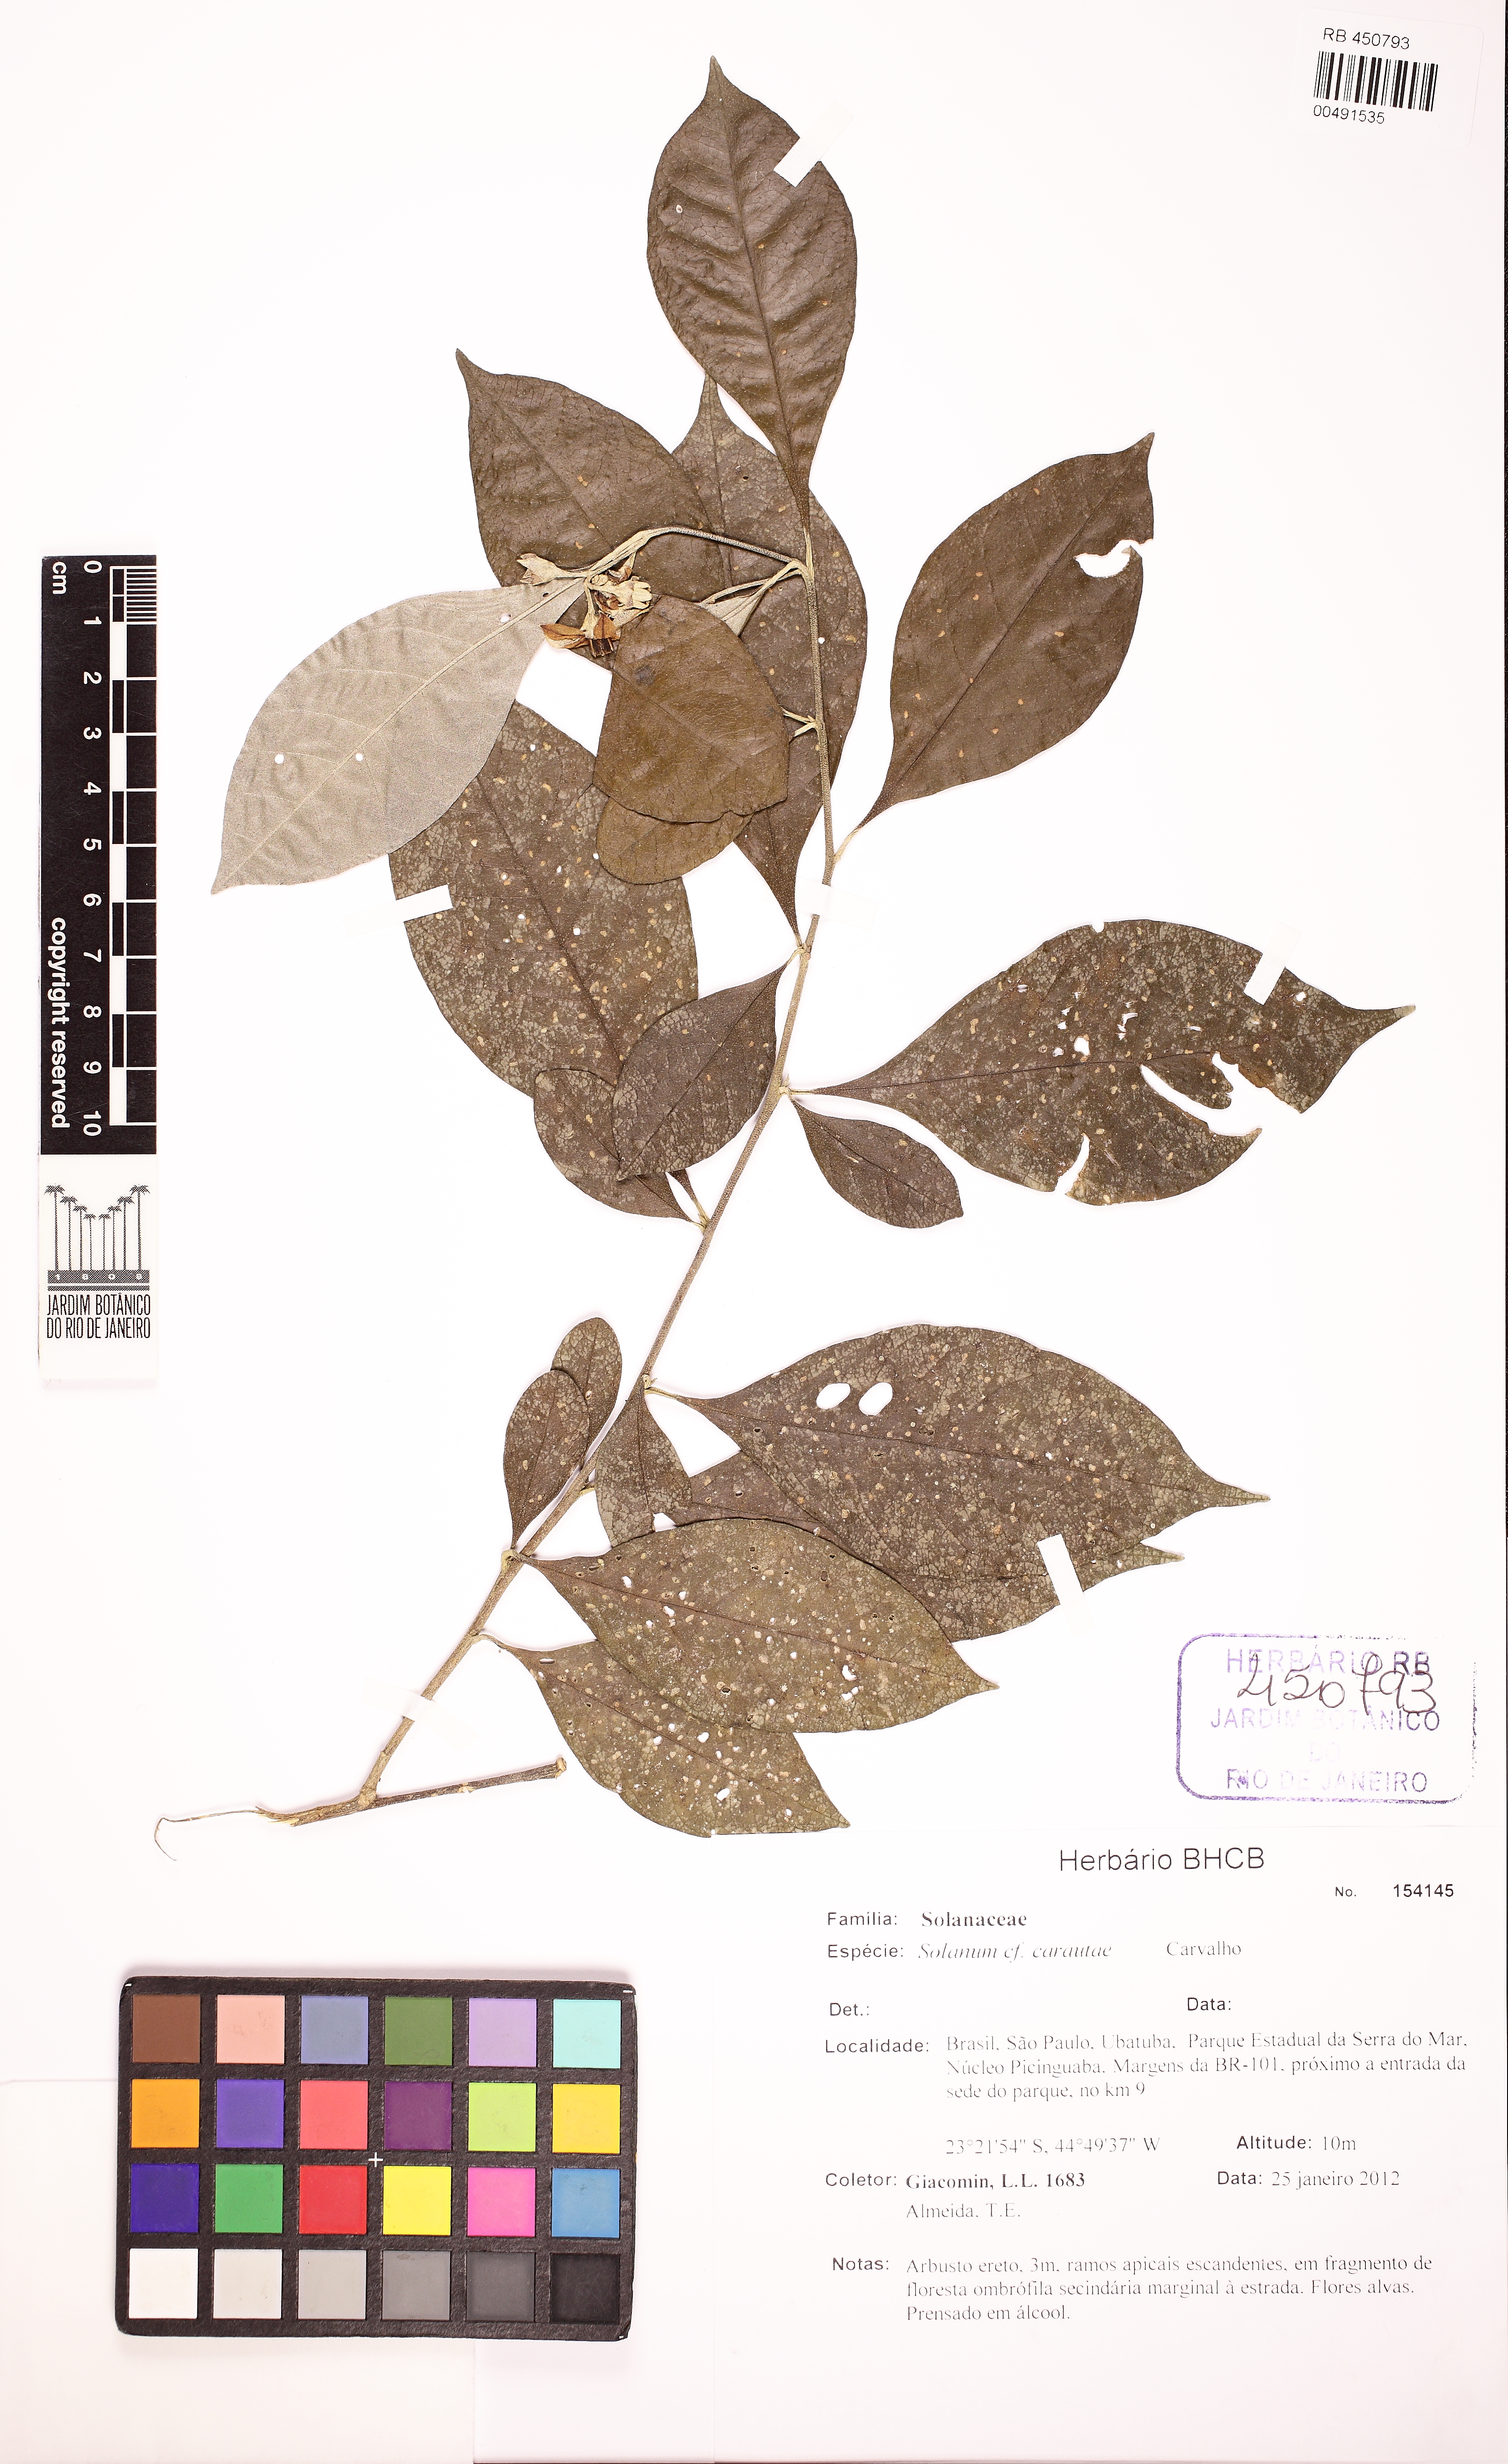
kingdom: Plantae
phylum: Tracheophyta
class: Magnoliopsida
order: Solanales
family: Solanaceae
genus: Solanum
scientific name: Solanum carautae
